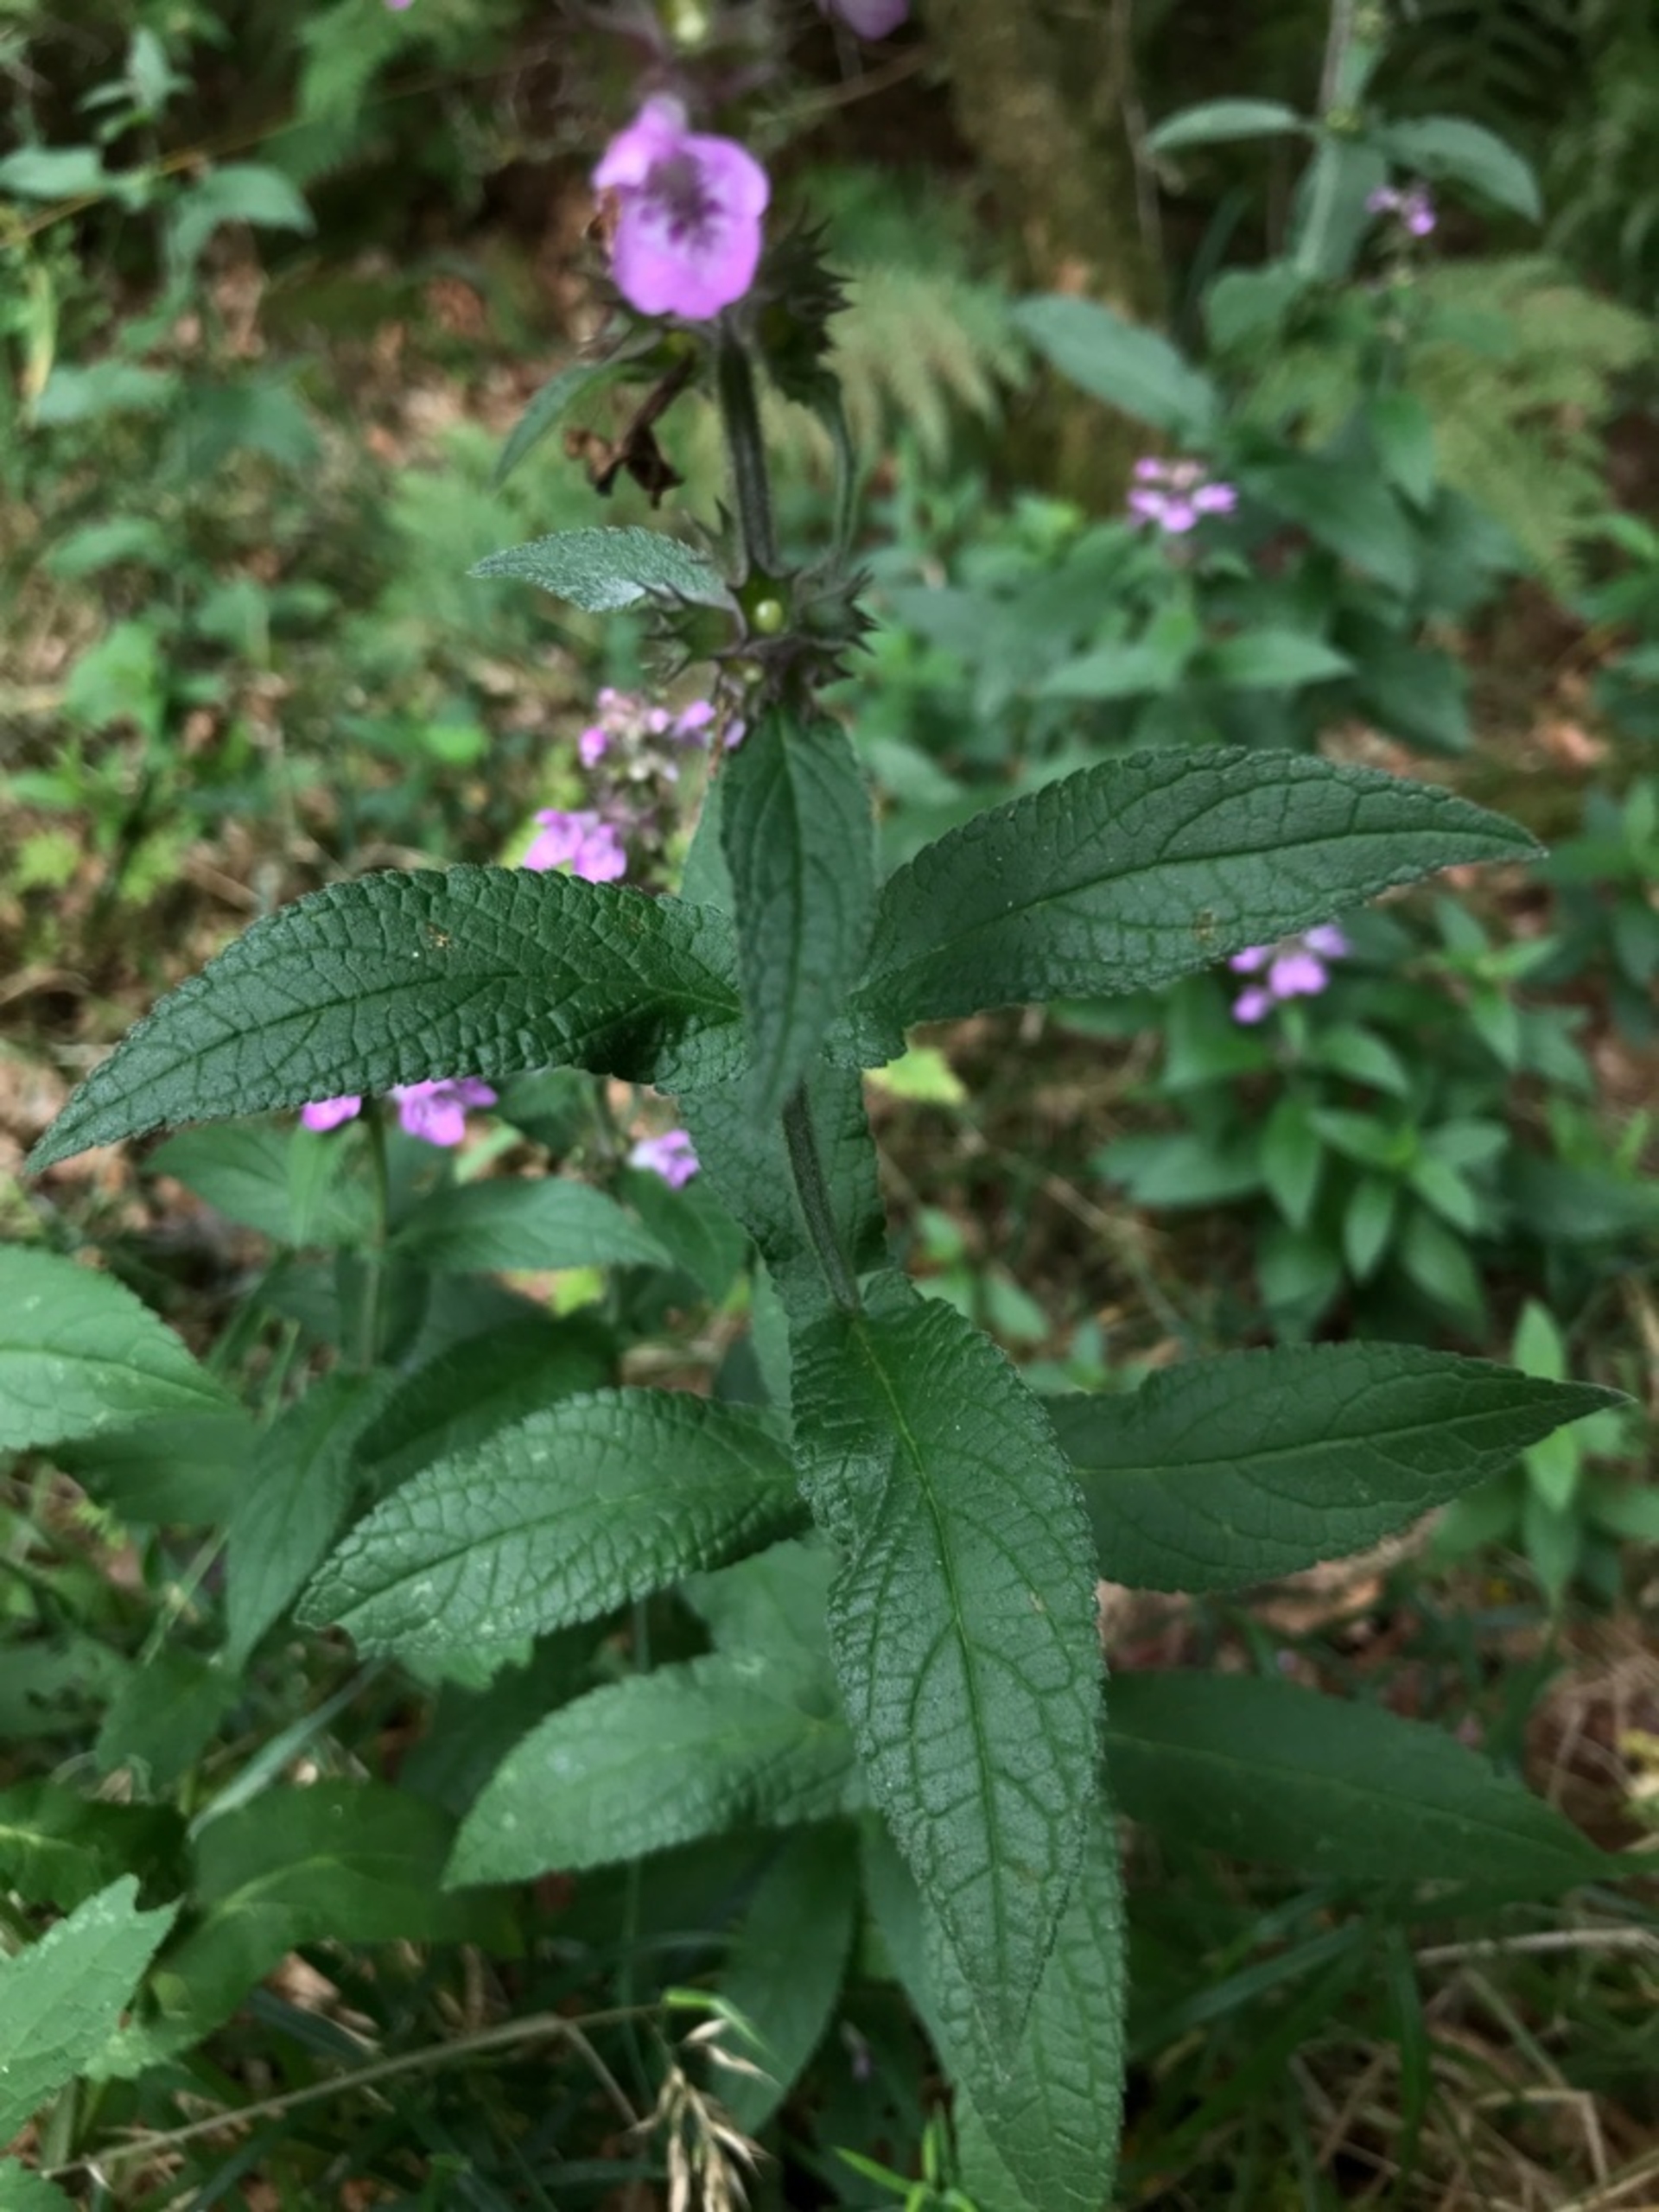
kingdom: Plantae
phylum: Tracheophyta
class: Magnoliopsida
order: Lamiales
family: Lamiaceae
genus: Stachys
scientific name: Stachys palustris
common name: Kær-galtetand
